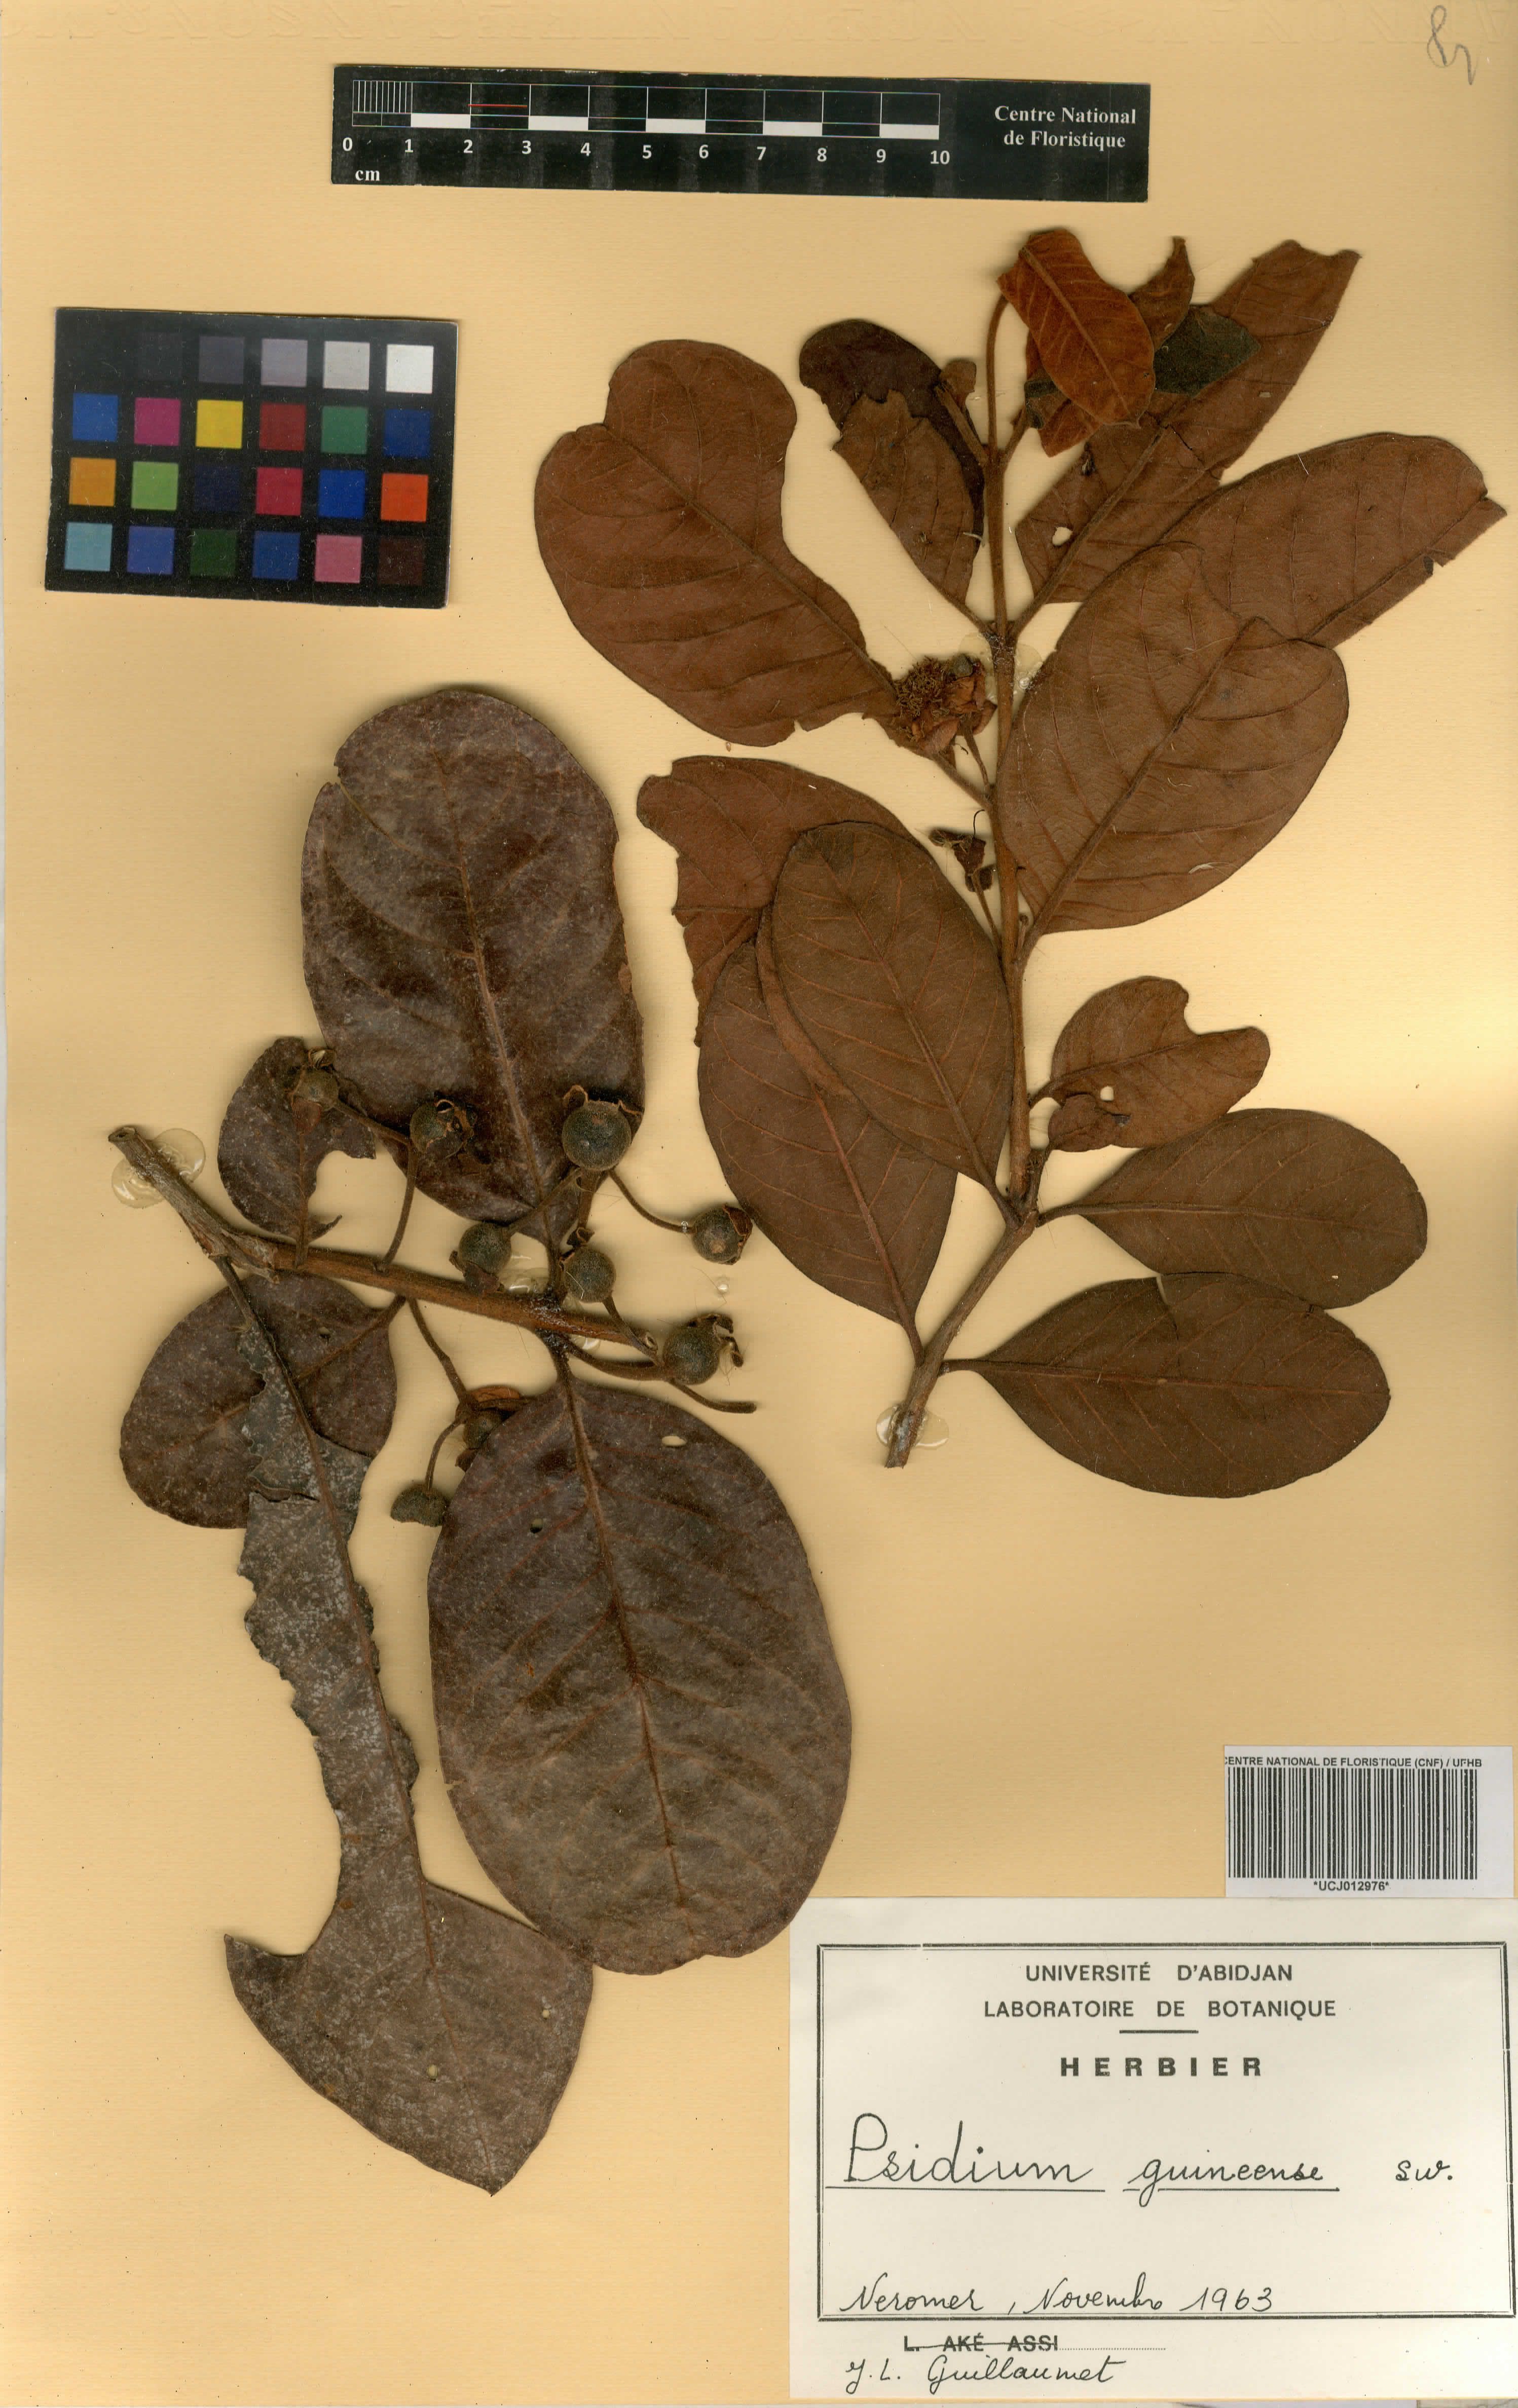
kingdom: Plantae
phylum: Tracheophyta
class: Magnoliopsida
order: Myrtales
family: Myrtaceae
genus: Psidium
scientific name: Psidium guineense
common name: Brazilian guava
